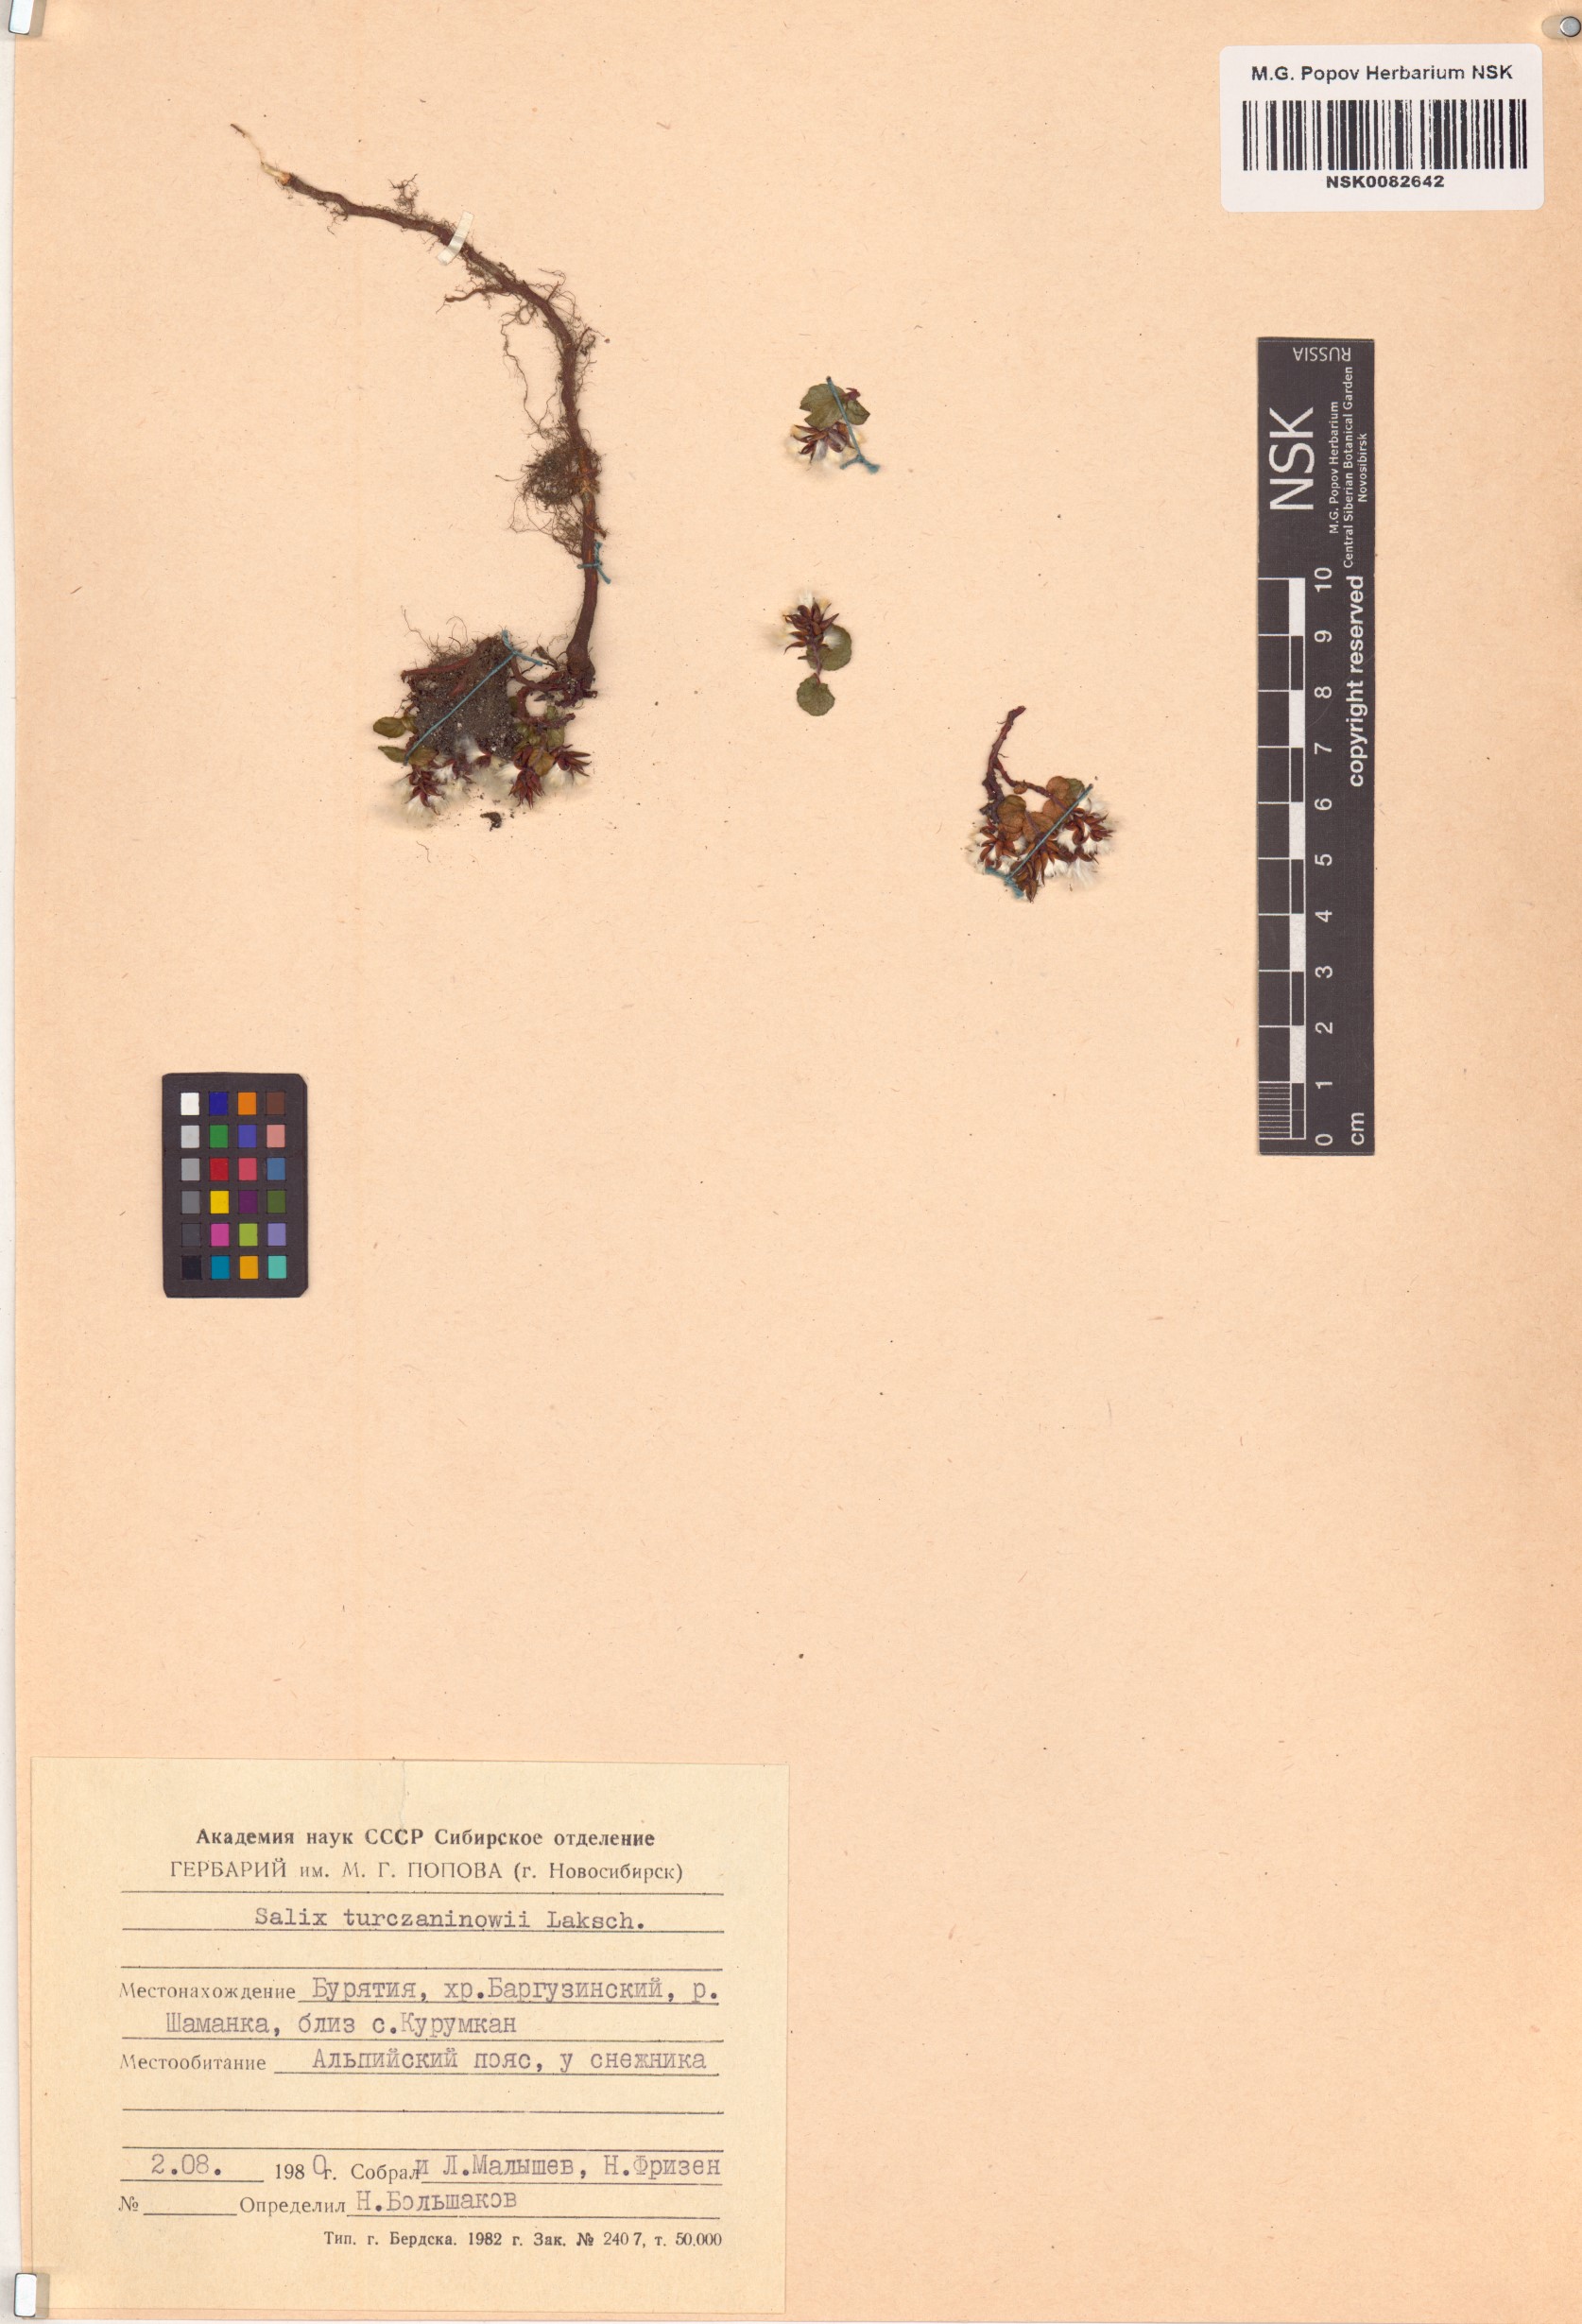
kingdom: Plantae
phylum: Tracheophyta
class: Magnoliopsida
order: Malpighiales
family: Salicaceae
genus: Salix
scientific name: Salix turczaninowii
